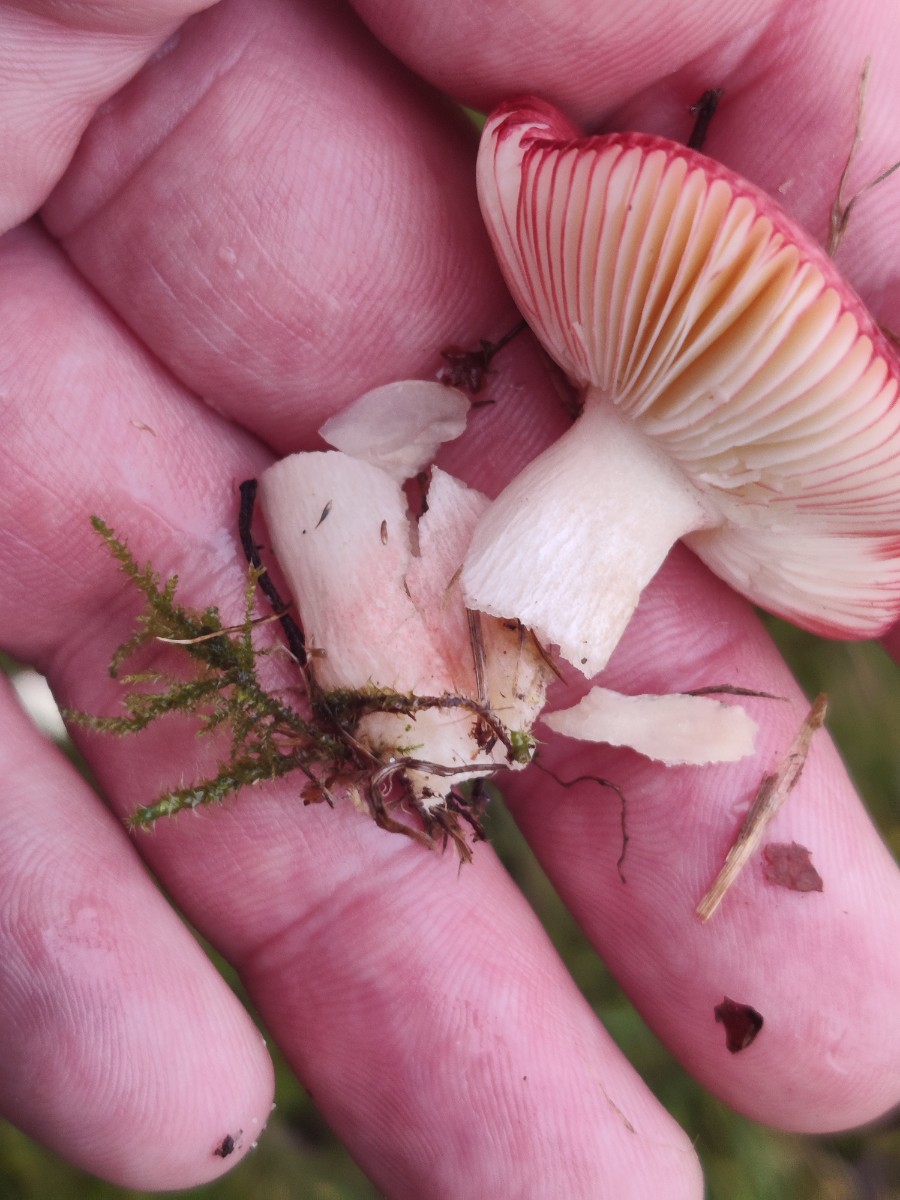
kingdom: Fungi
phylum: Basidiomycota
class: Agaricomycetes
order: Russulales
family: Russulaceae
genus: Russula
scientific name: Russula
